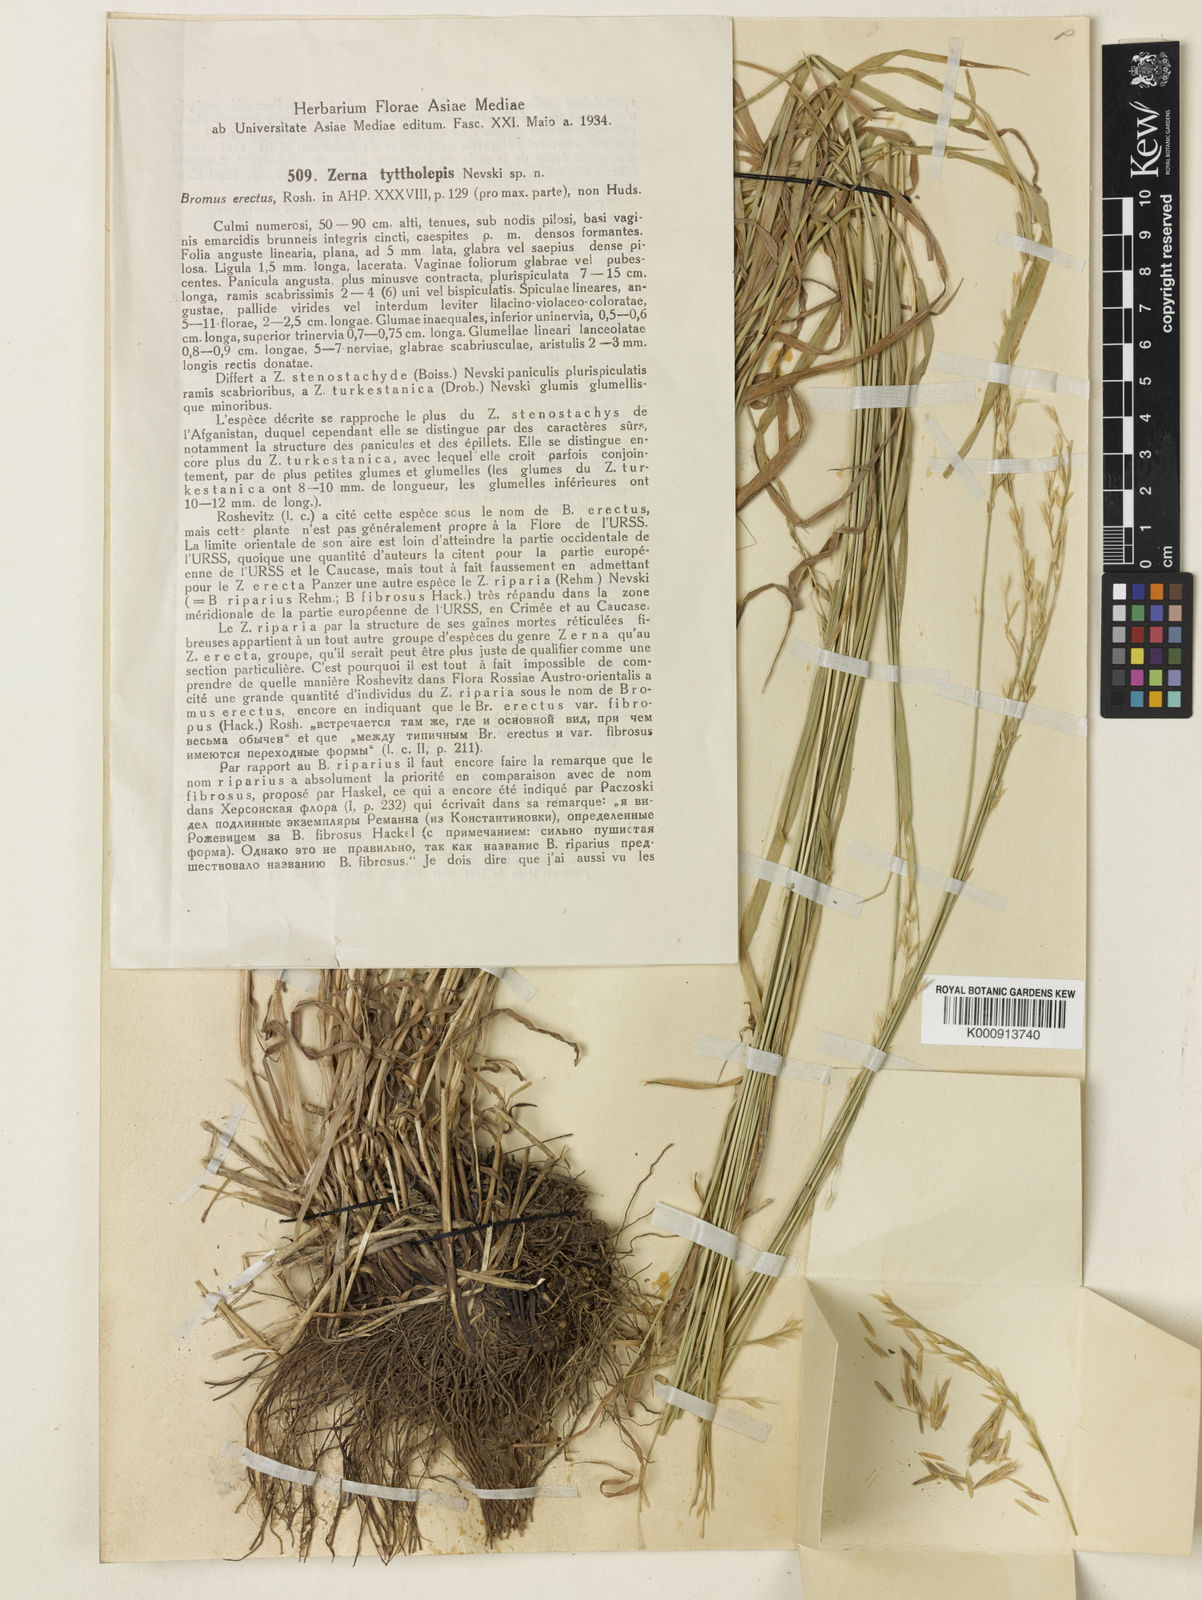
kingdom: Plantae
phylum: Tracheophyta
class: Liliopsida
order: Poales
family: Poaceae
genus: Bromus
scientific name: Bromus tyttholepis
